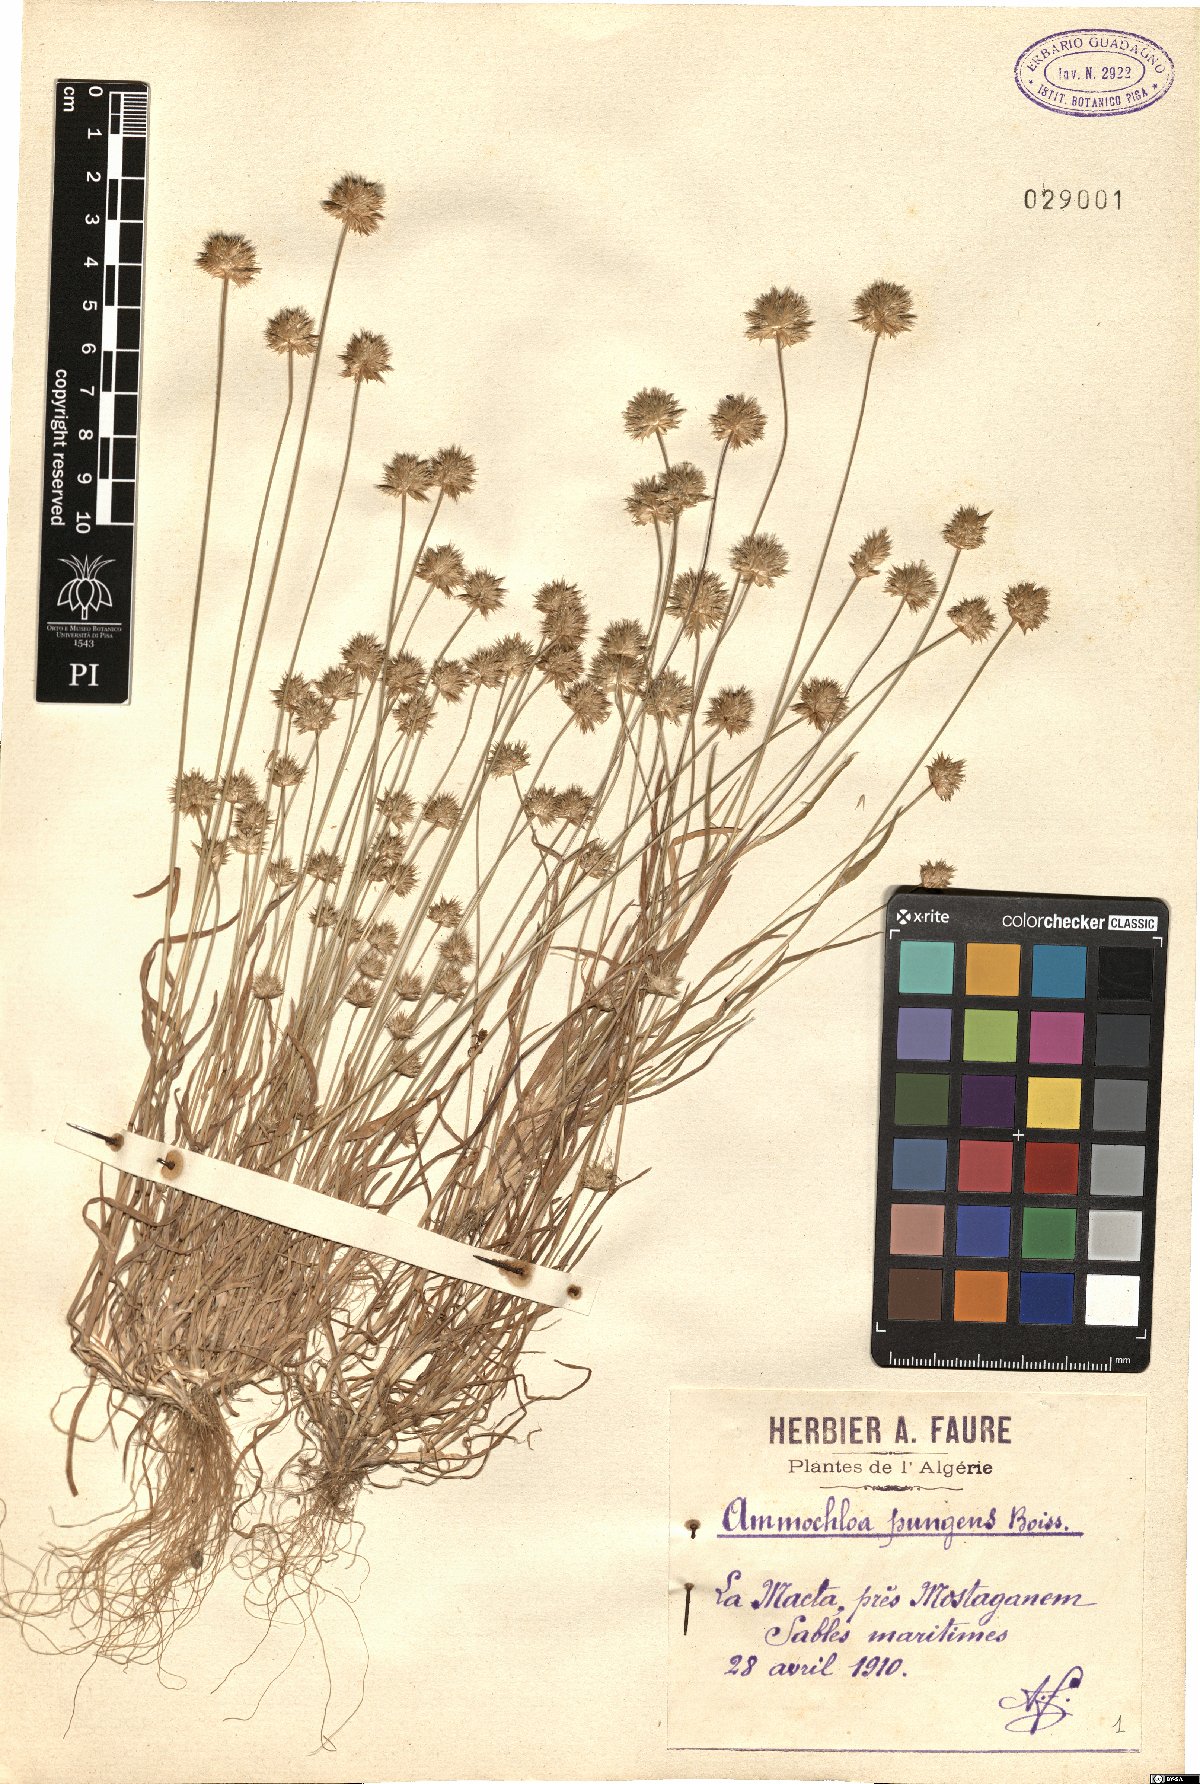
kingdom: Plantae
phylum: Tracheophyta
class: Liliopsida
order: Poales
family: Poaceae
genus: Ammochloa
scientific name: Ammochloa pungens
